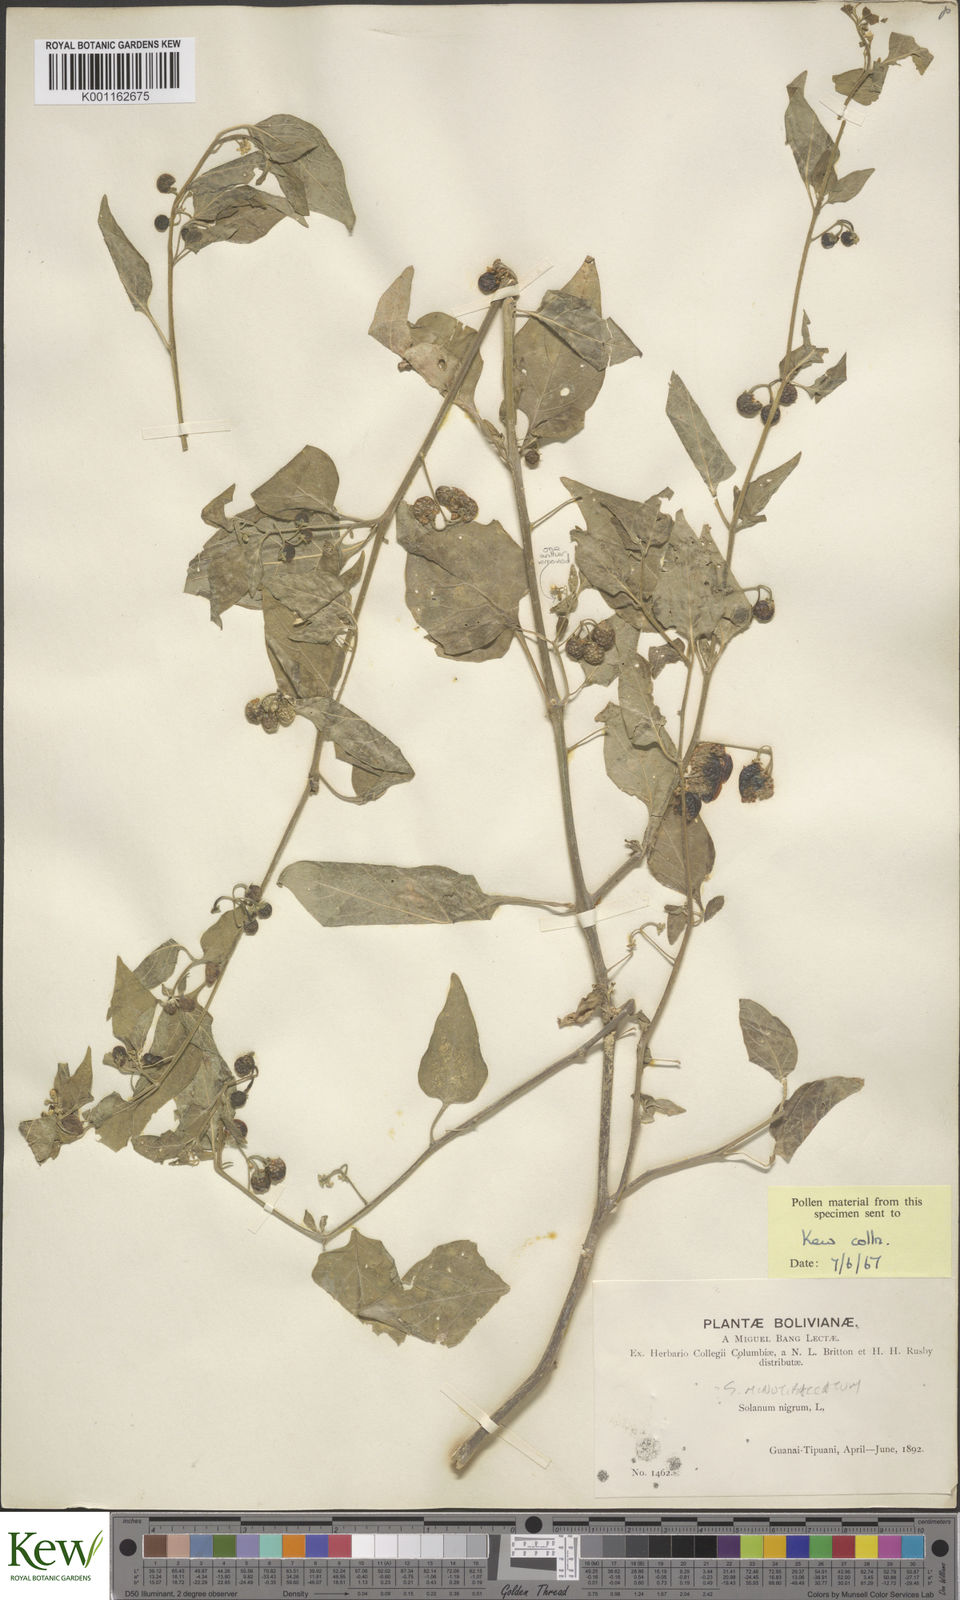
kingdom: Plantae
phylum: Tracheophyta
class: Magnoliopsida
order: Solanales
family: Solanaceae
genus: Solanum
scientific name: Solanum americanum
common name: American black nightshade
